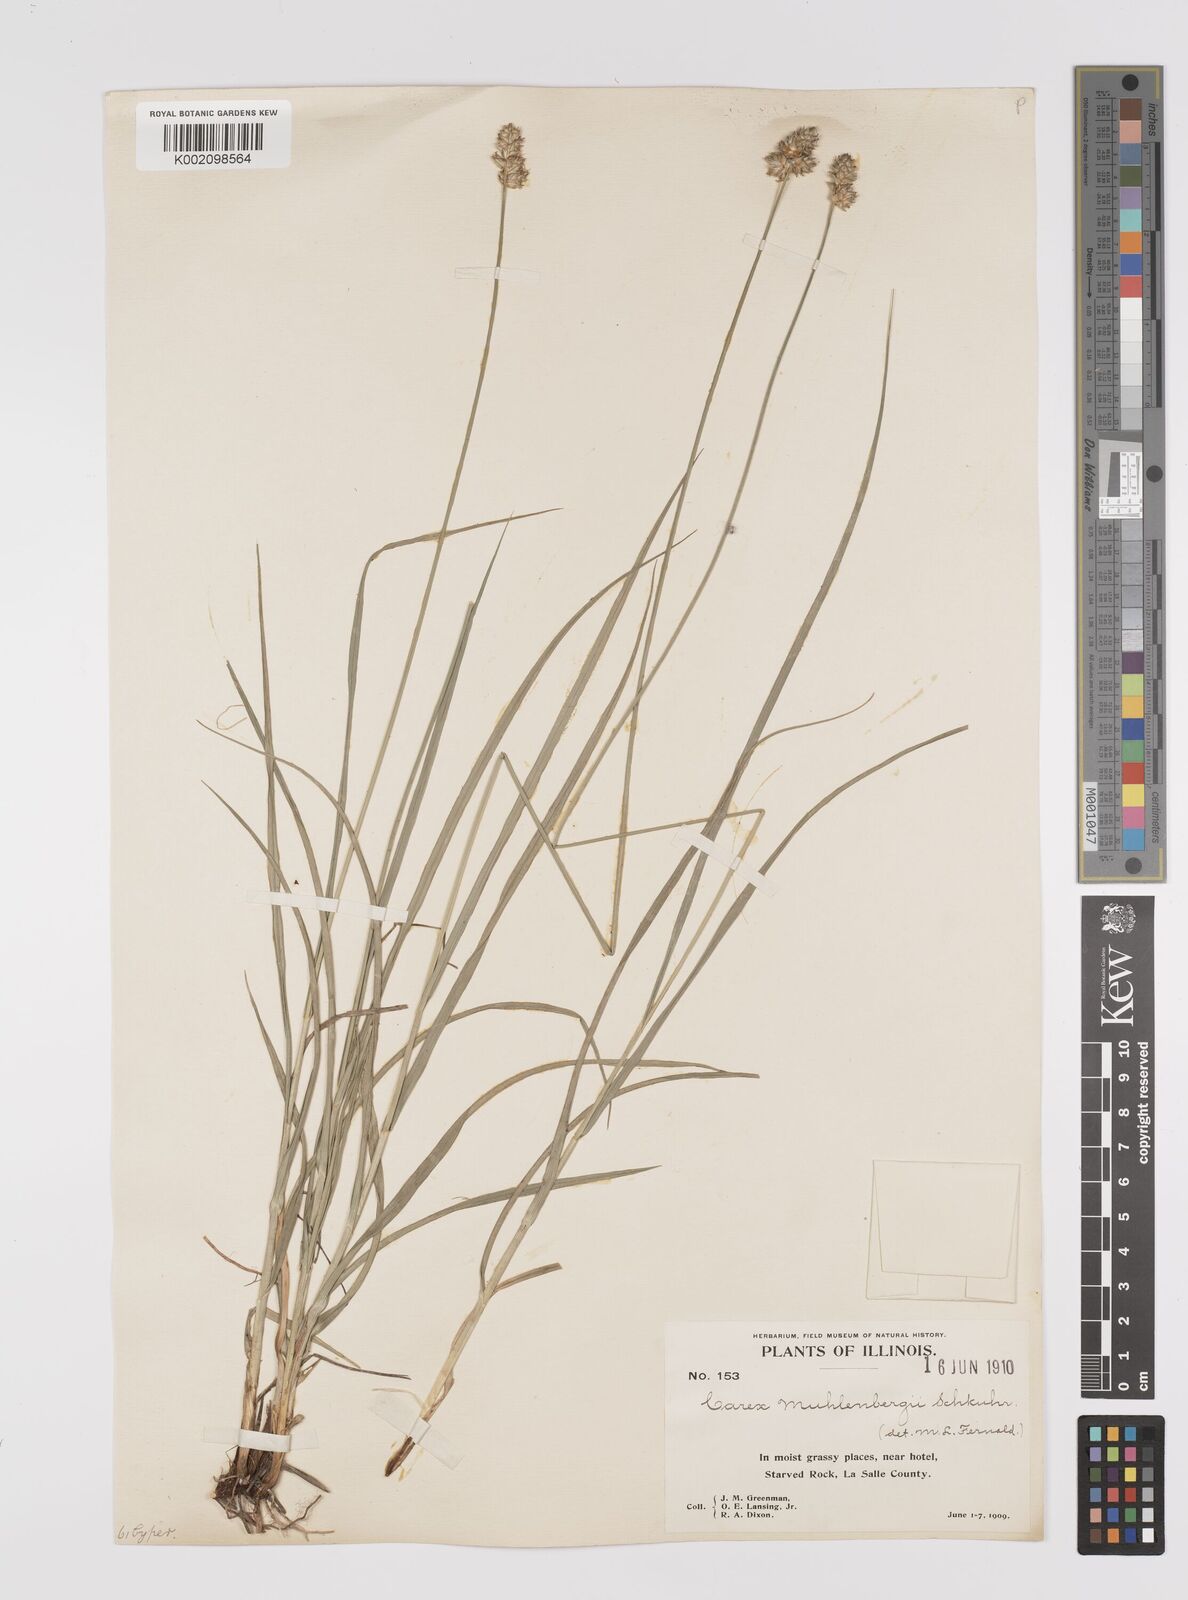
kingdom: Plantae
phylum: Tracheophyta
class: Liliopsida
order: Poales
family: Cyperaceae
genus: Carex
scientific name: Carex vulpinoidea
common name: American fox-sedge
